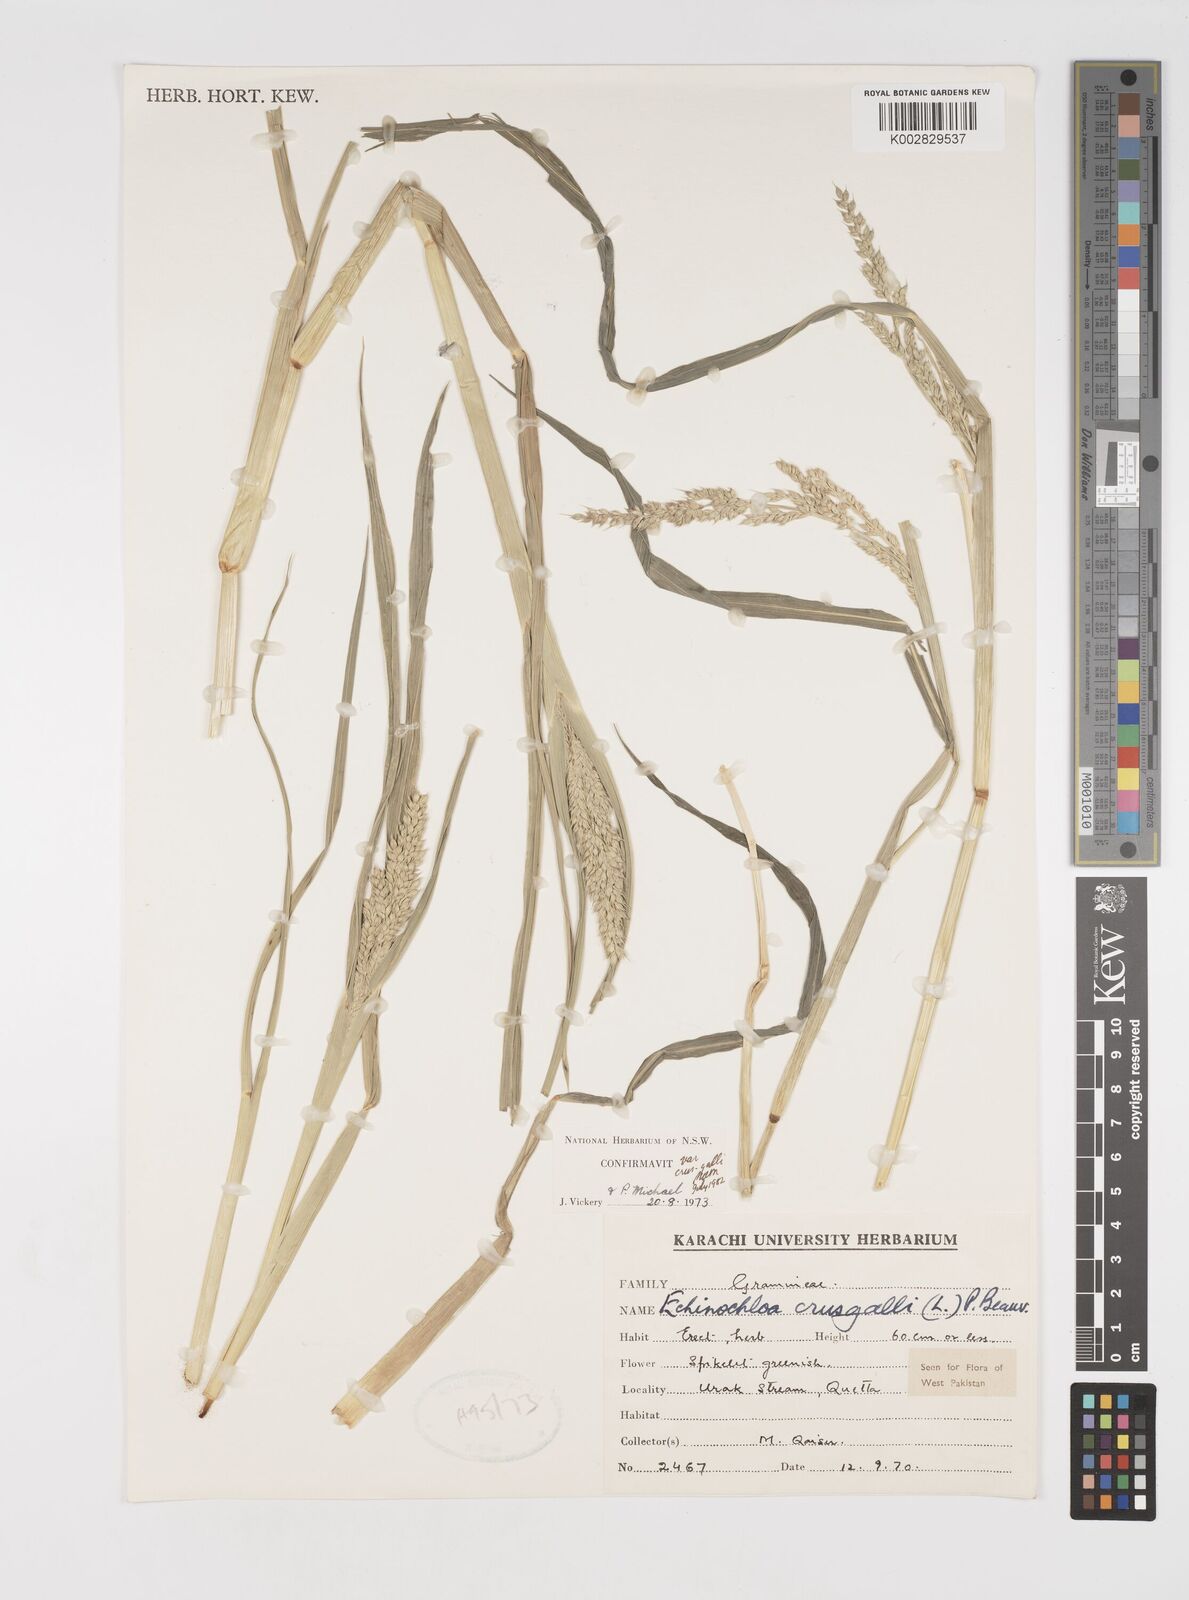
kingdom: Plantae
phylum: Tracheophyta
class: Liliopsida
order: Poales
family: Poaceae
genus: Echinochloa
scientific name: Echinochloa crus-galli
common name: Cockspur
